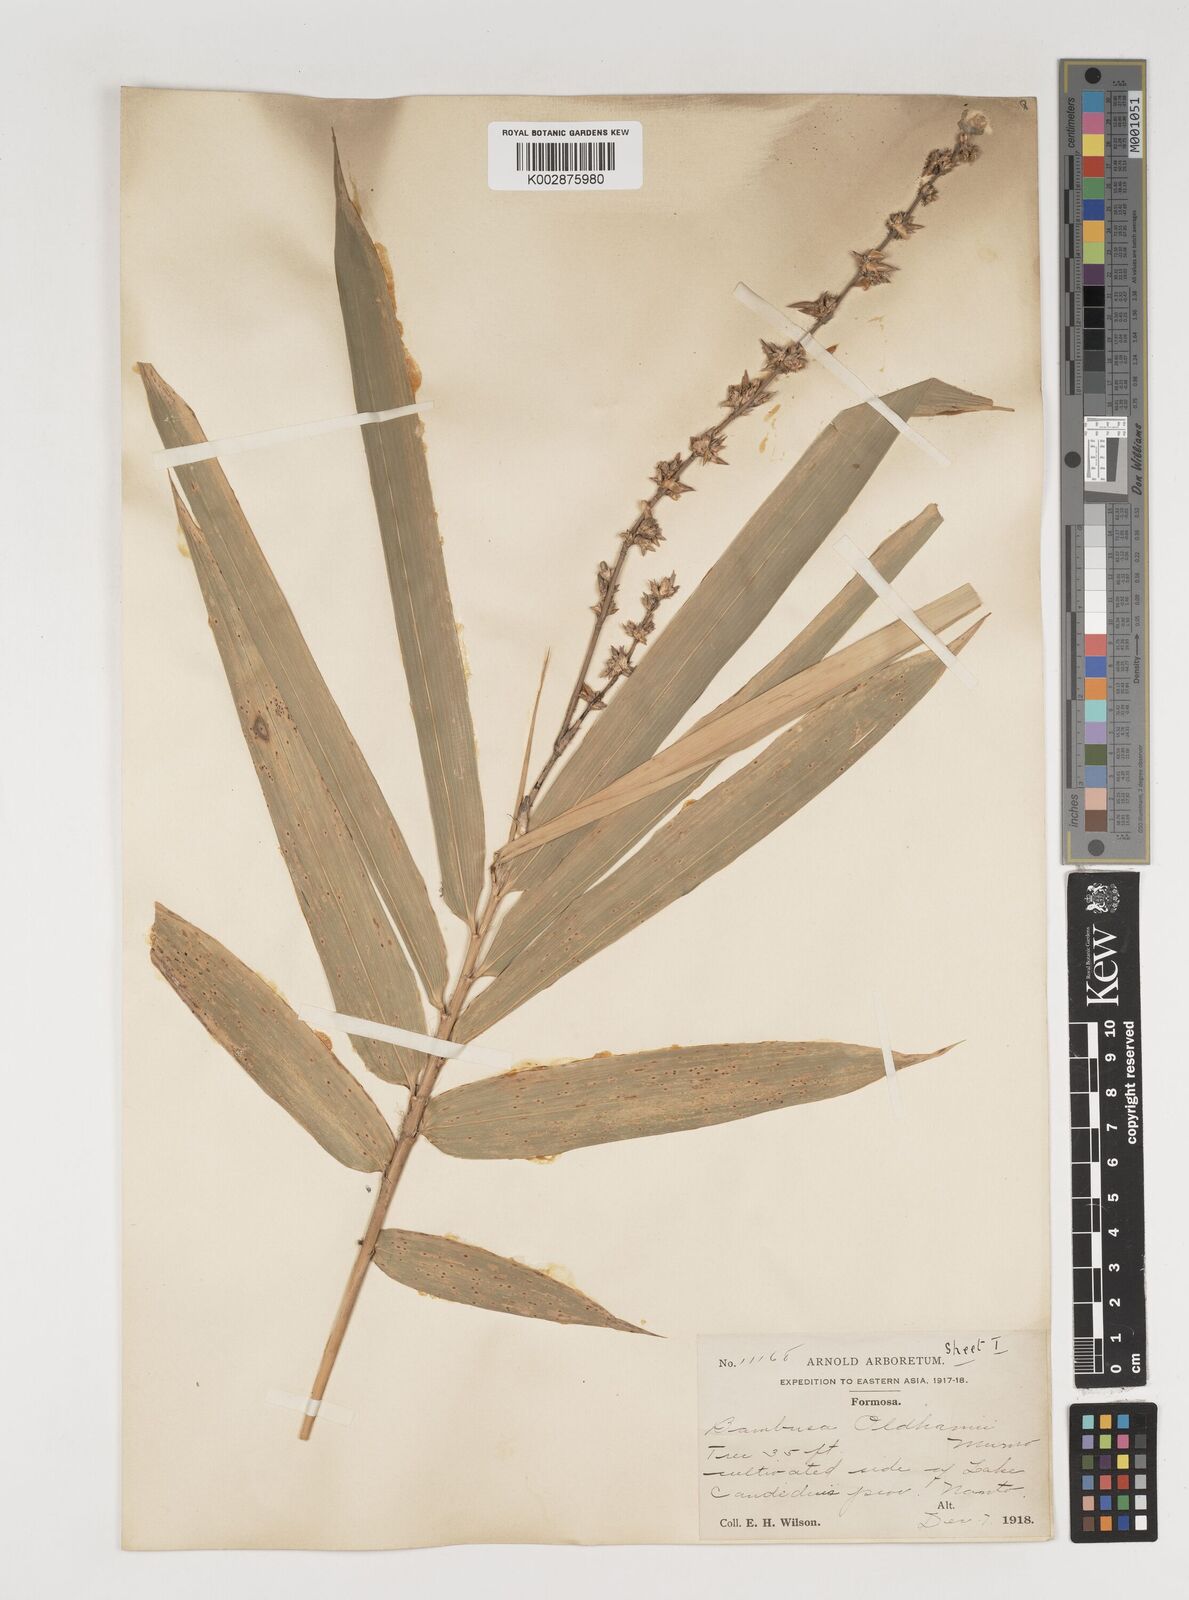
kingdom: Plantae
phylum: Tracheophyta
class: Liliopsida
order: Poales
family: Poaceae
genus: Bambusa
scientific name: Bambusa oldhamii
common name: Giant timber bamboo
